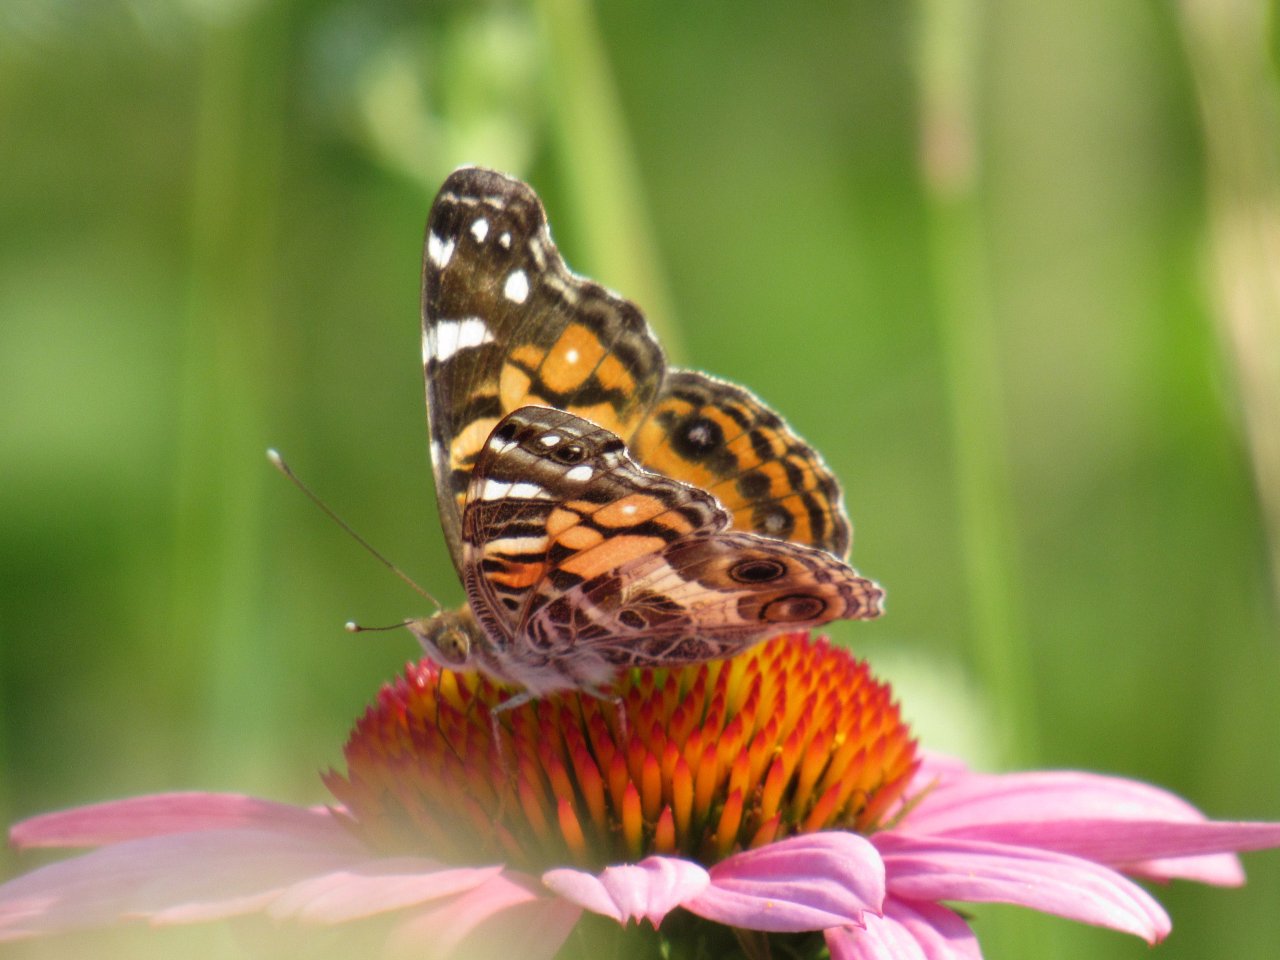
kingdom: Animalia
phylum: Arthropoda
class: Insecta
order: Lepidoptera
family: Nymphalidae
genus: Vanessa
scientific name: Vanessa virginiensis
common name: American Lady
